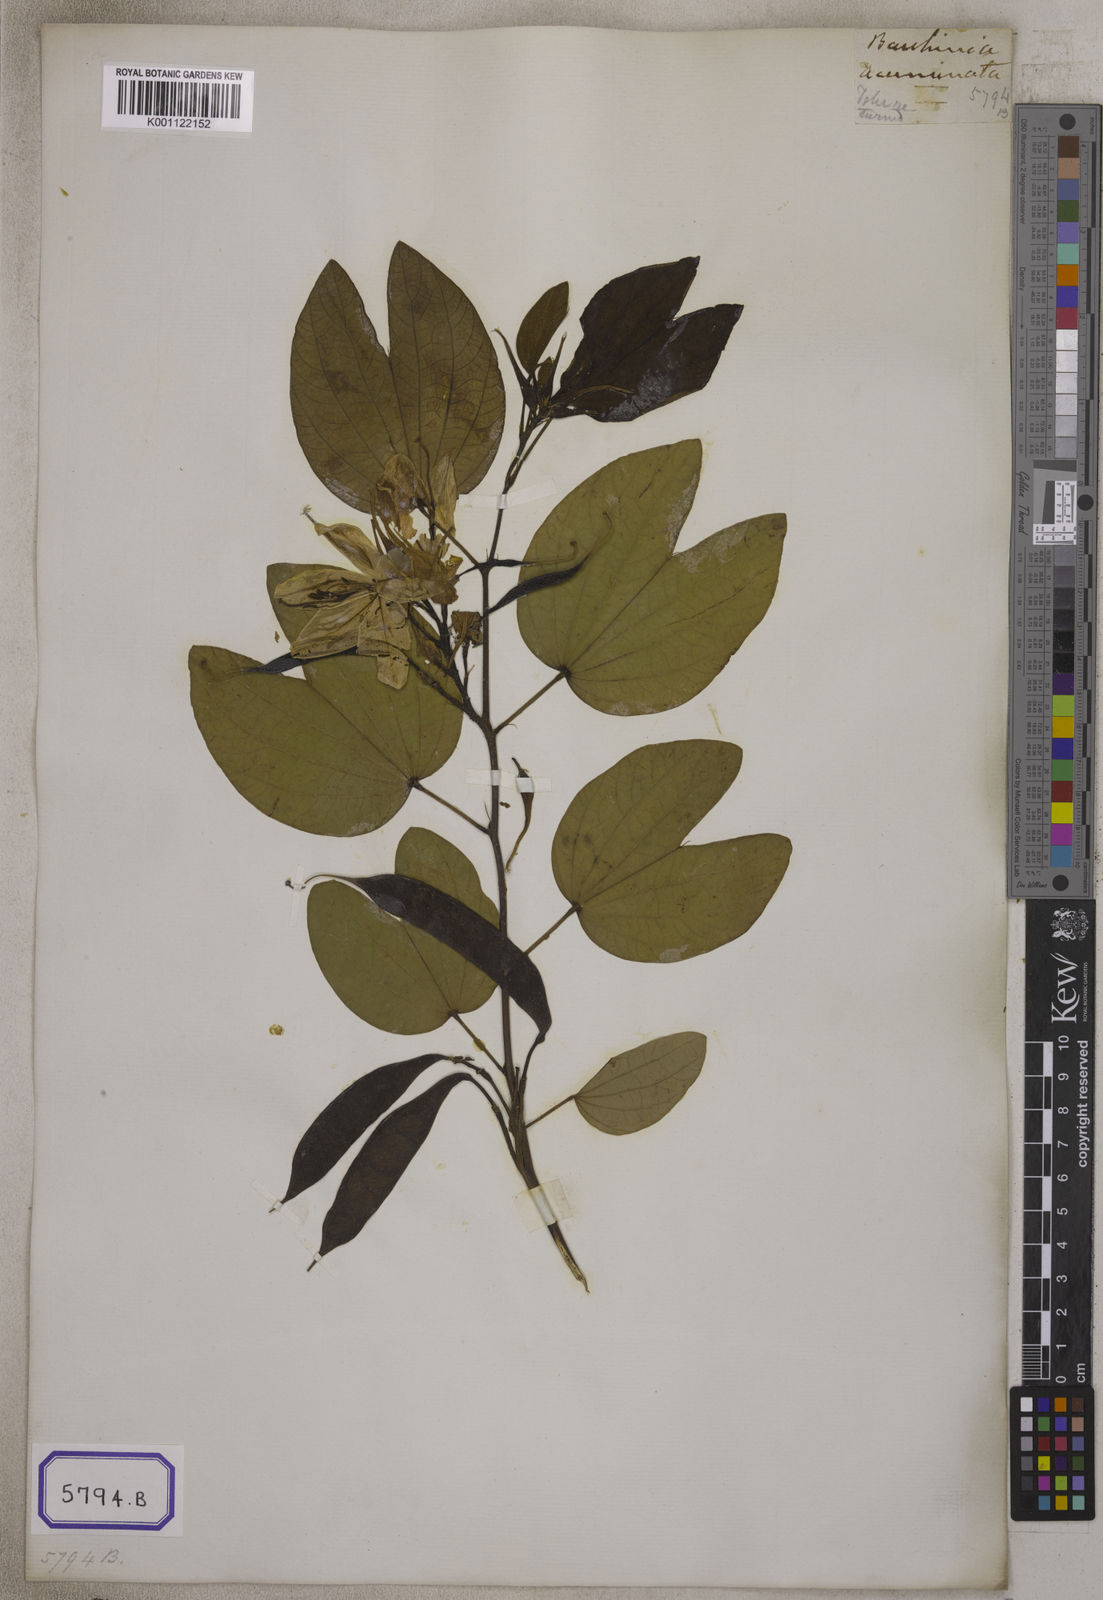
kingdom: Plantae
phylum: Tracheophyta
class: Magnoliopsida
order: Fabales
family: Fabaceae
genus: Bauhinia
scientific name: Bauhinia acuminata
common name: Dwarf white bauhinia
